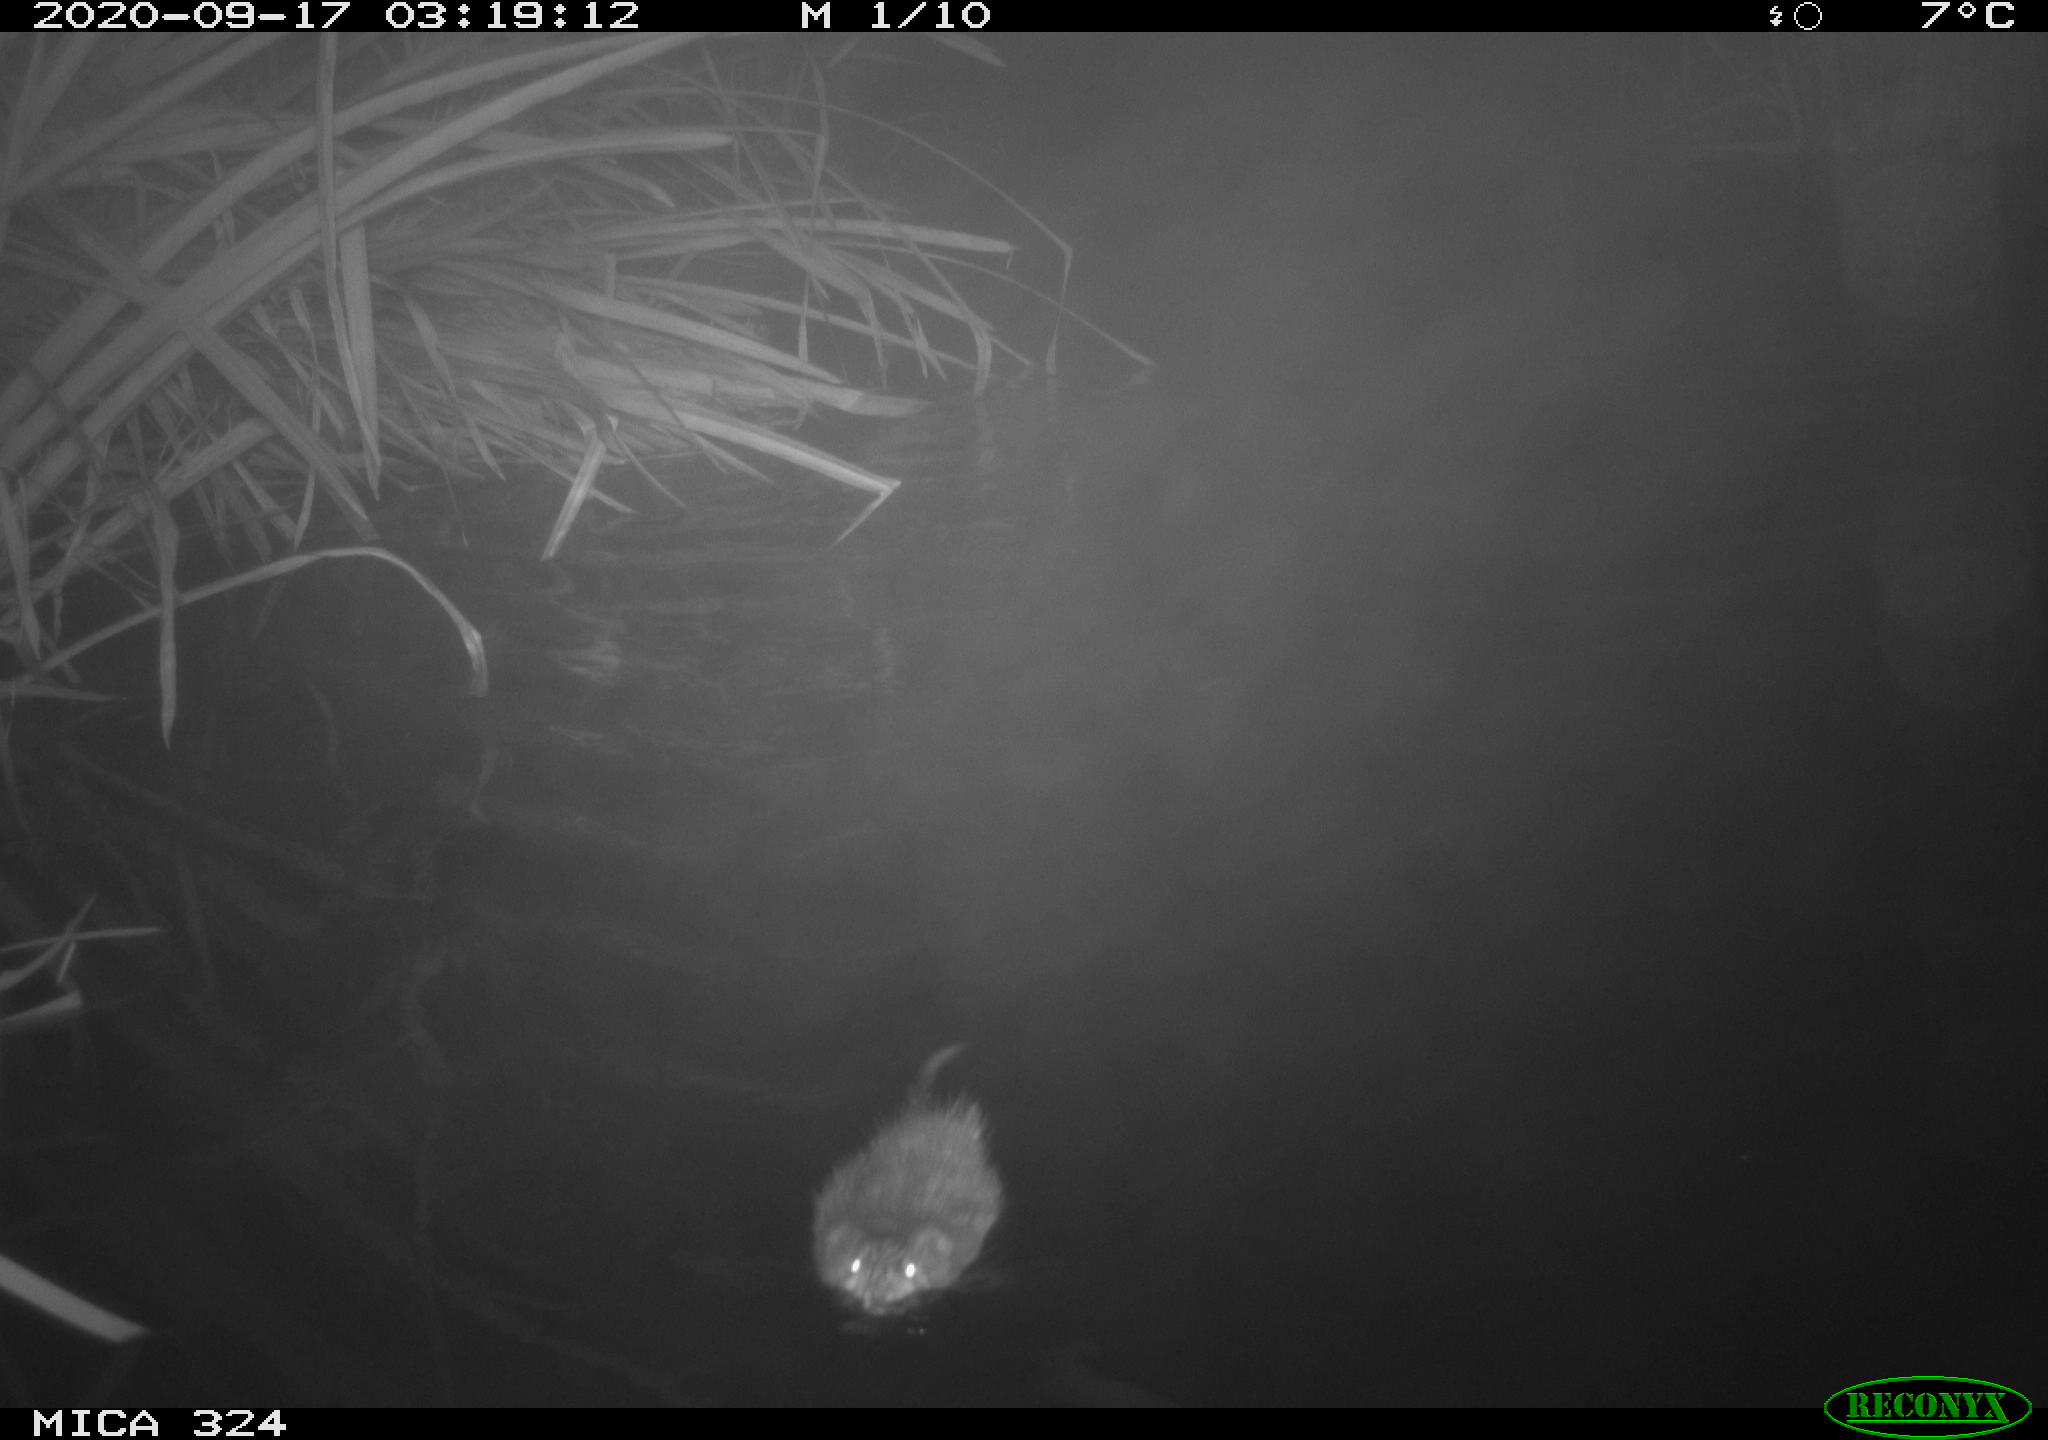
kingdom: Animalia
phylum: Chordata
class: Mammalia
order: Rodentia
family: Cricetidae
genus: Ondatra
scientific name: Ondatra zibethicus
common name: Muskrat
